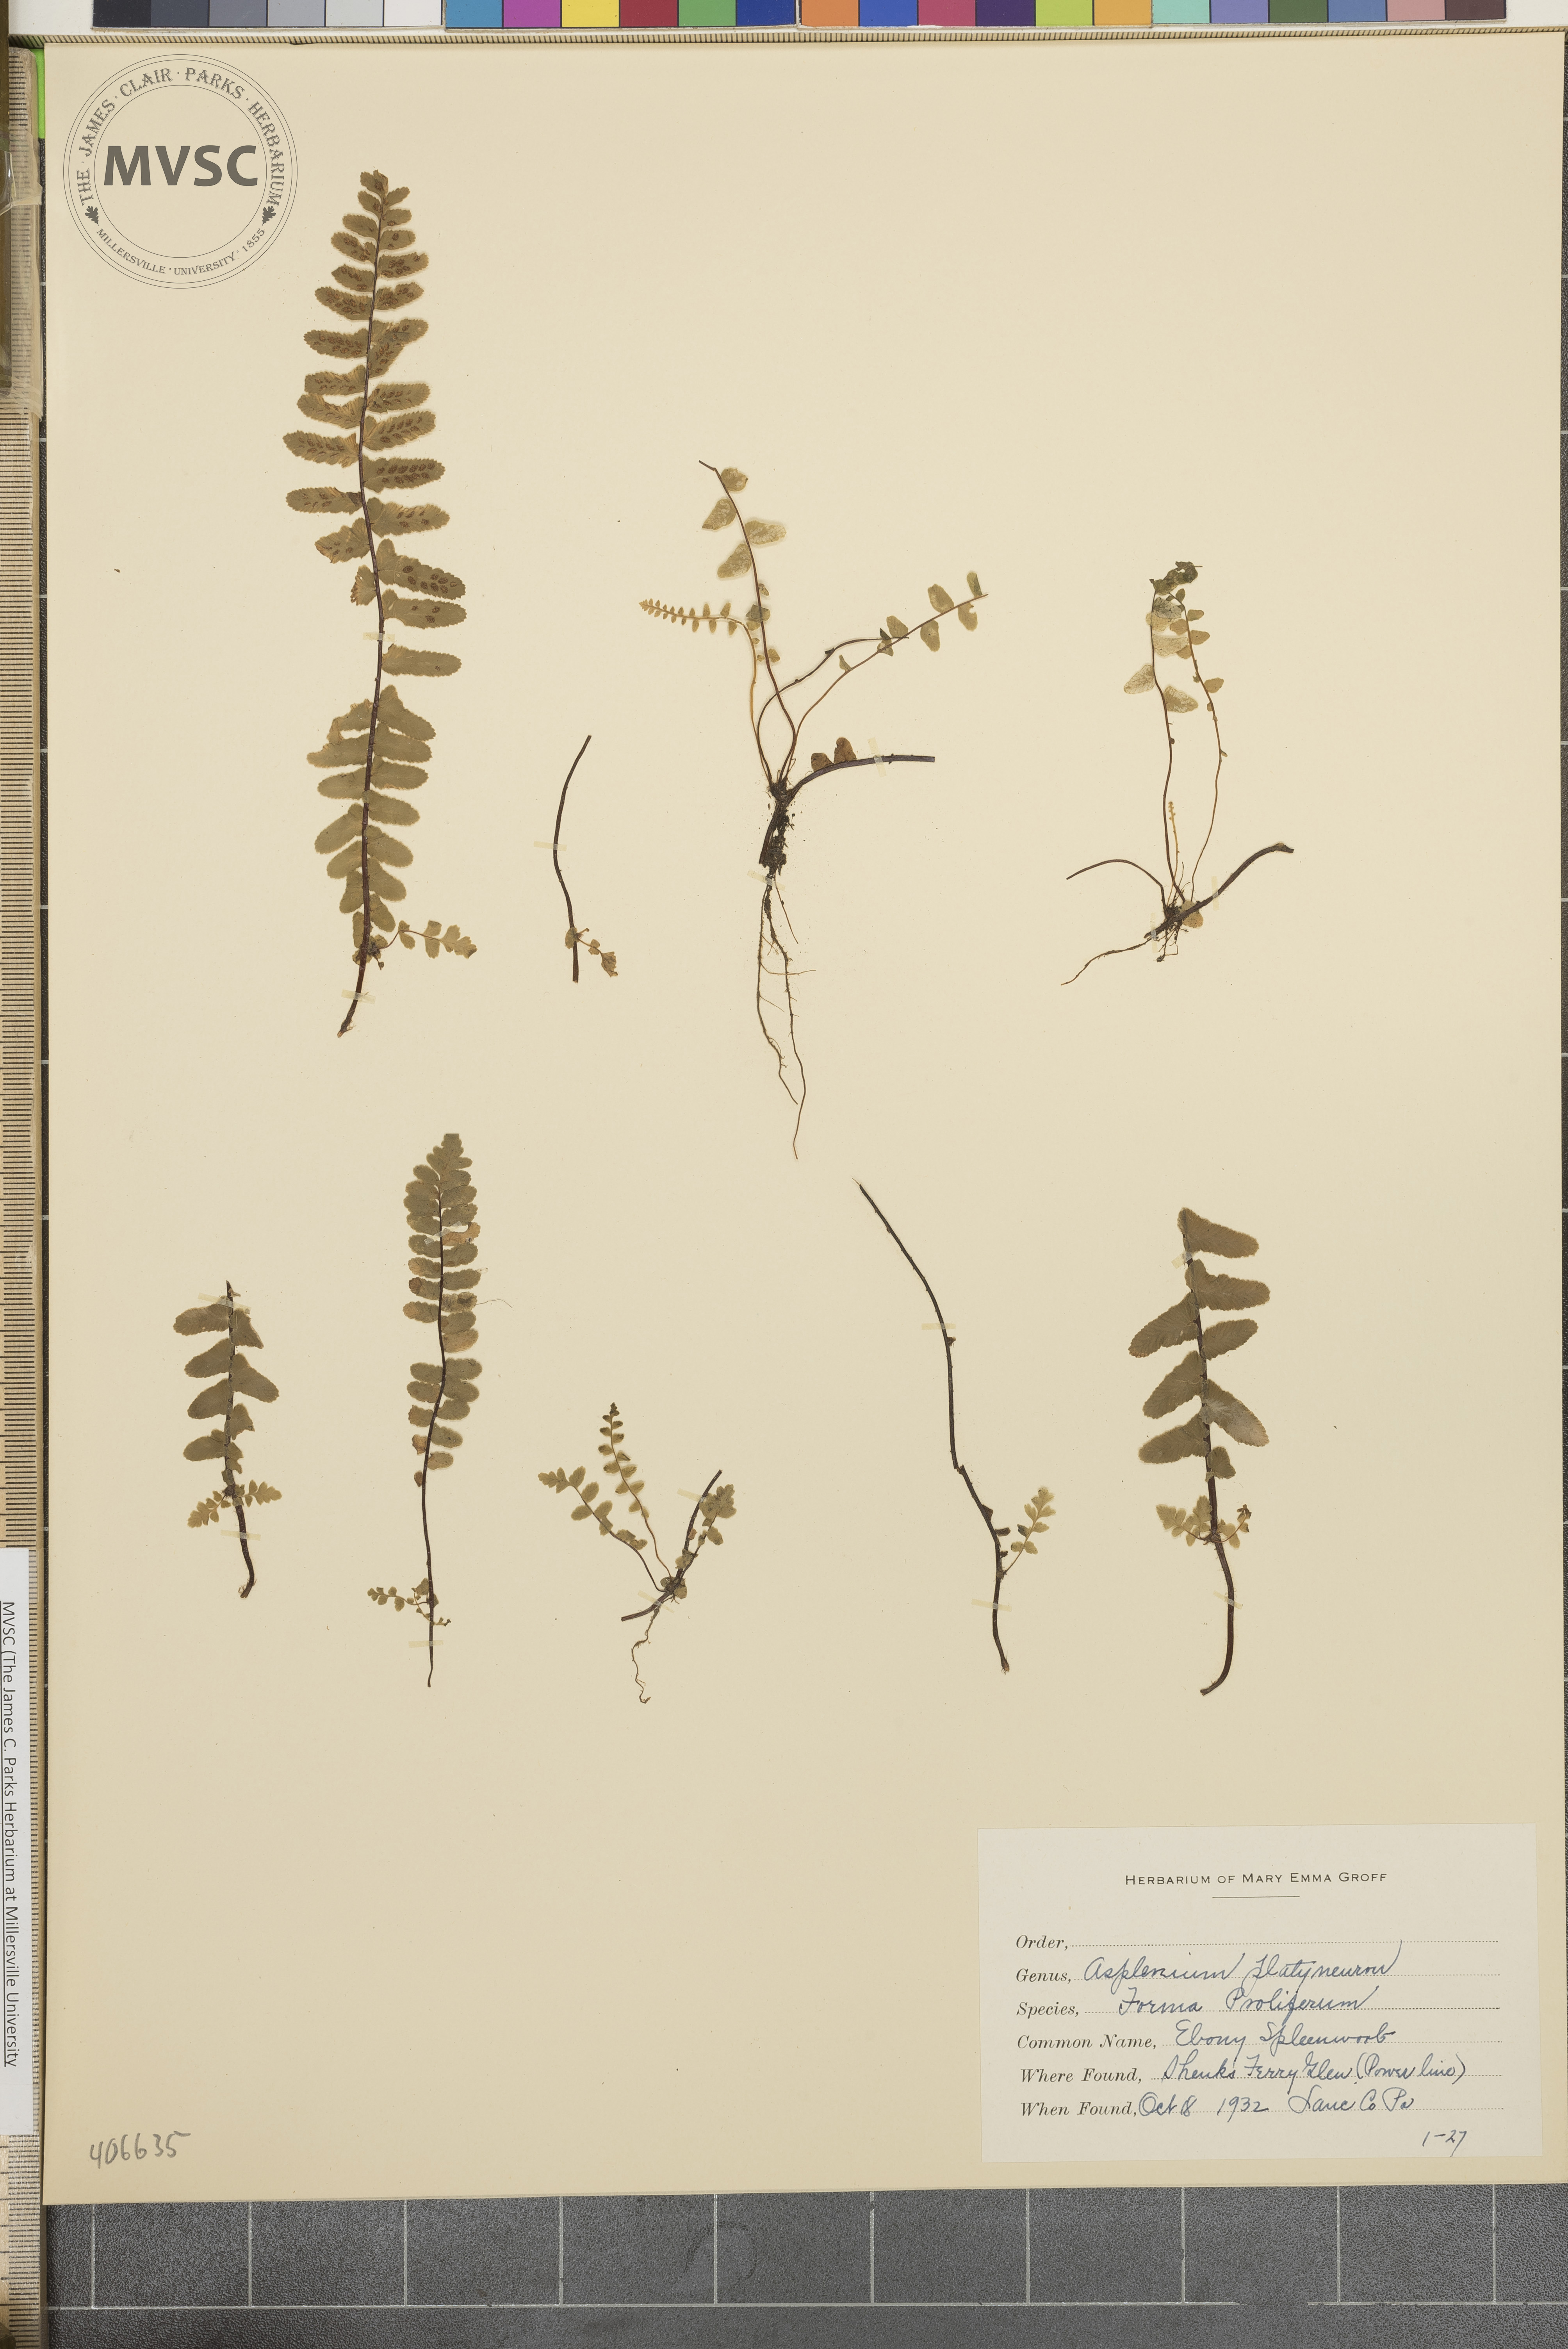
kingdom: Plantae
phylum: Tracheophyta
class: Polypodiopsida
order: Polypodiales
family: Aspleniaceae
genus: Asplenium
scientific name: Asplenium platyneuron
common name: Ebony spleenwort
